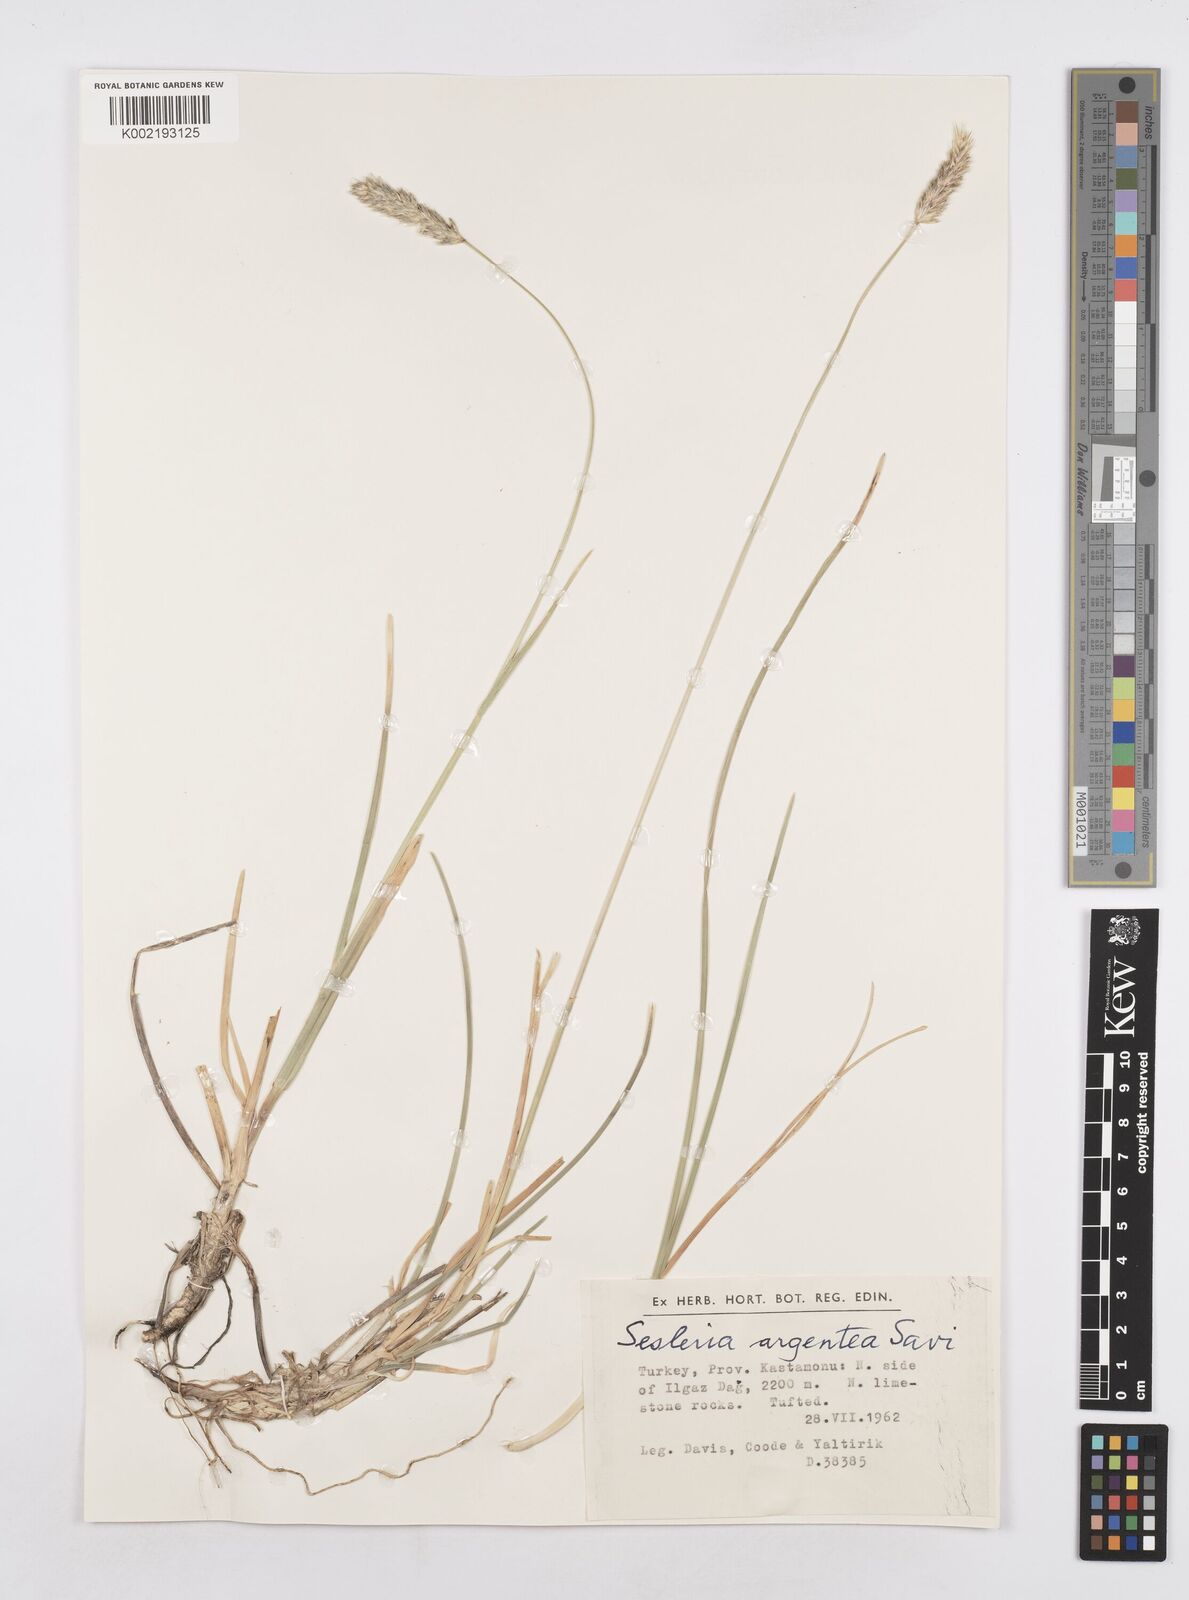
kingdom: Plantae
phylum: Tracheophyta
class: Liliopsida
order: Poales
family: Poaceae
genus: Sesleria
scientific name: Sesleria argentea
